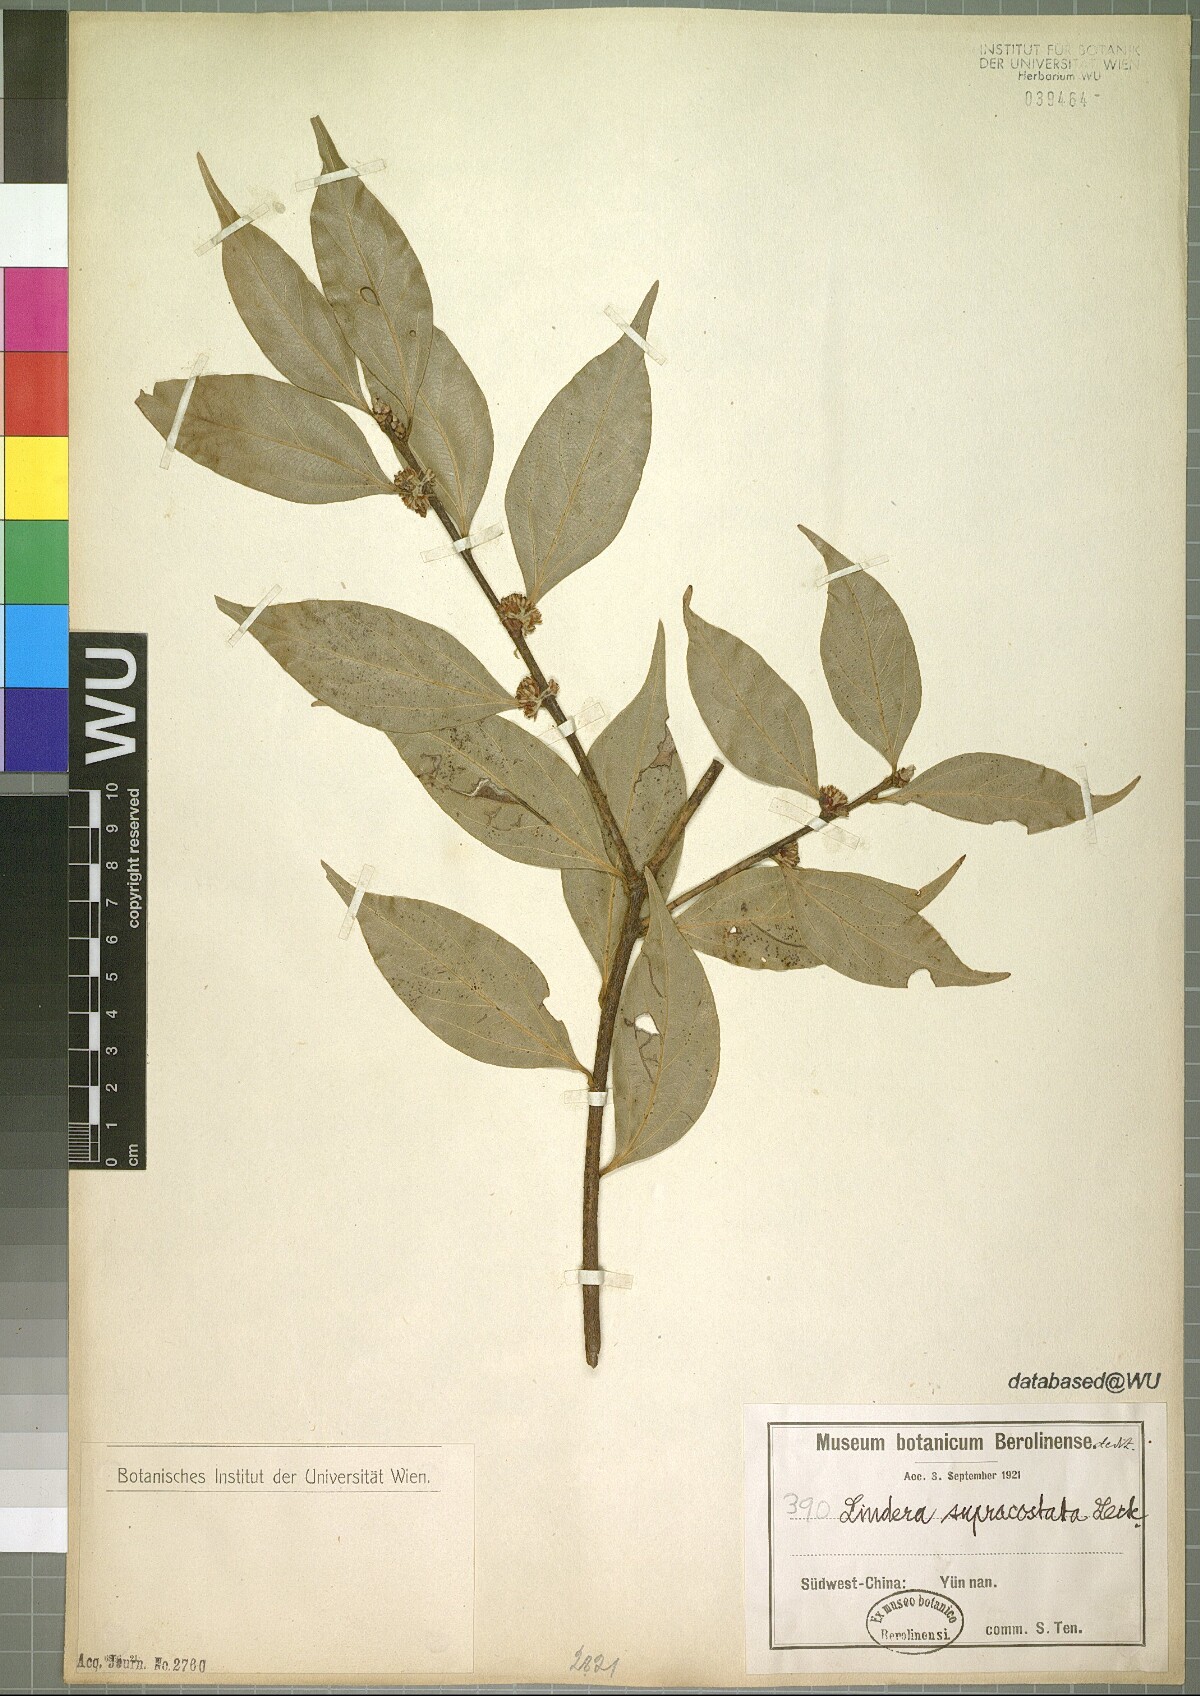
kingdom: Plantae
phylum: Tracheophyta
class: Magnoliopsida
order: Laurales
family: Lauraceae
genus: Lindera
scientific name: Lindera supracostata
